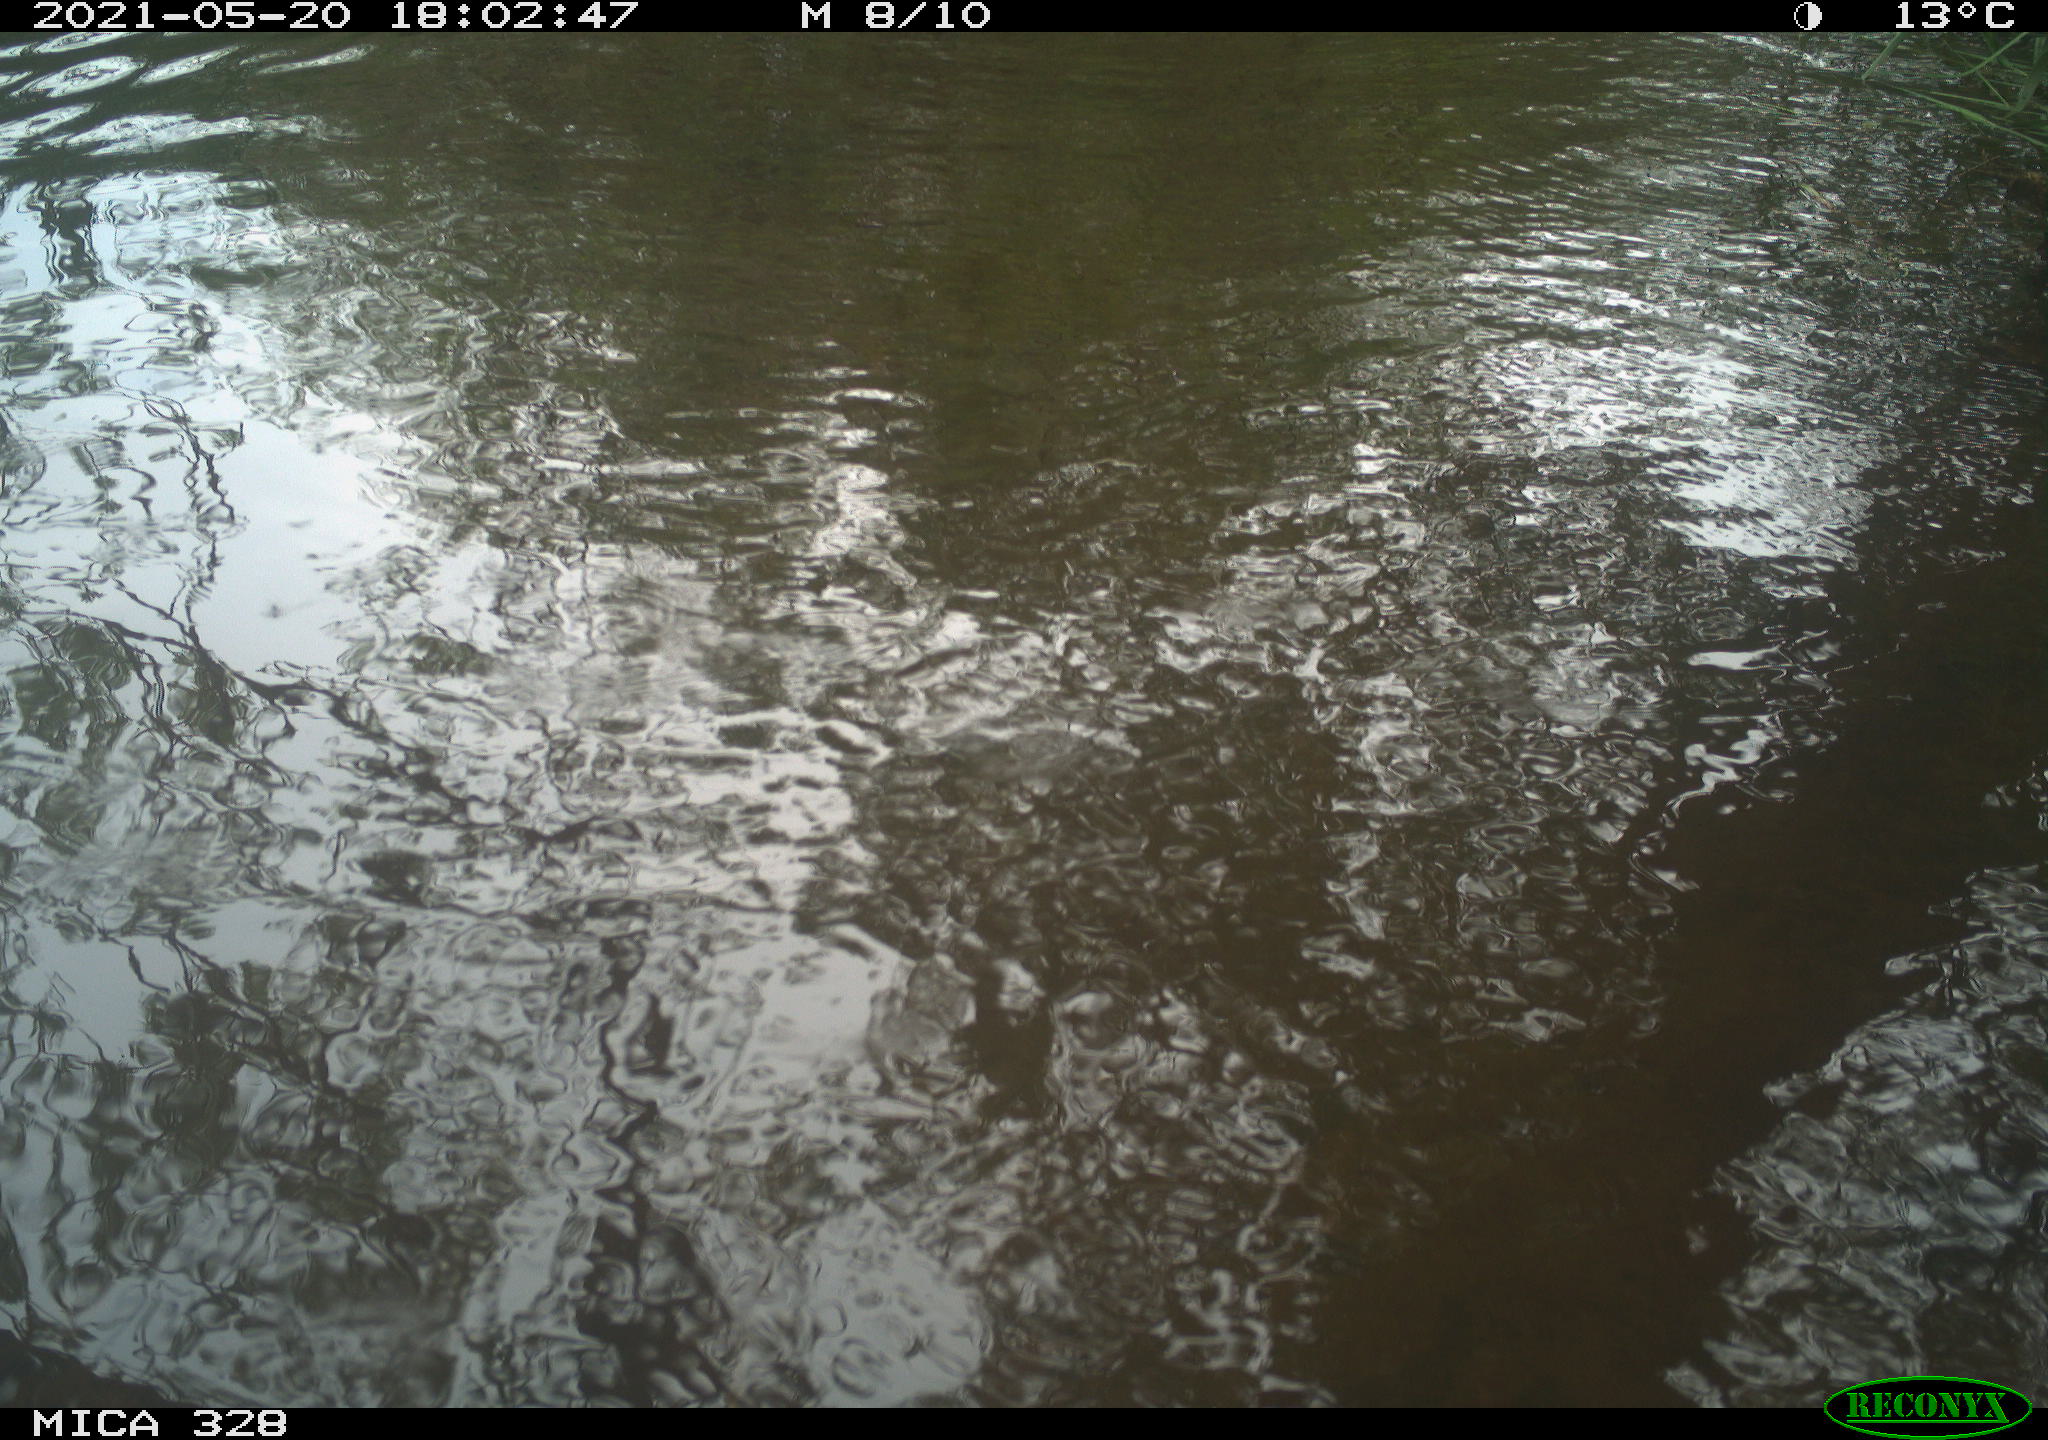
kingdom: Animalia
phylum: Chordata
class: Mammalia
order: Rodentia
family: Cricetidae
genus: Ondatra
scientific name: Ondatra zibethicus
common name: Muskrat
